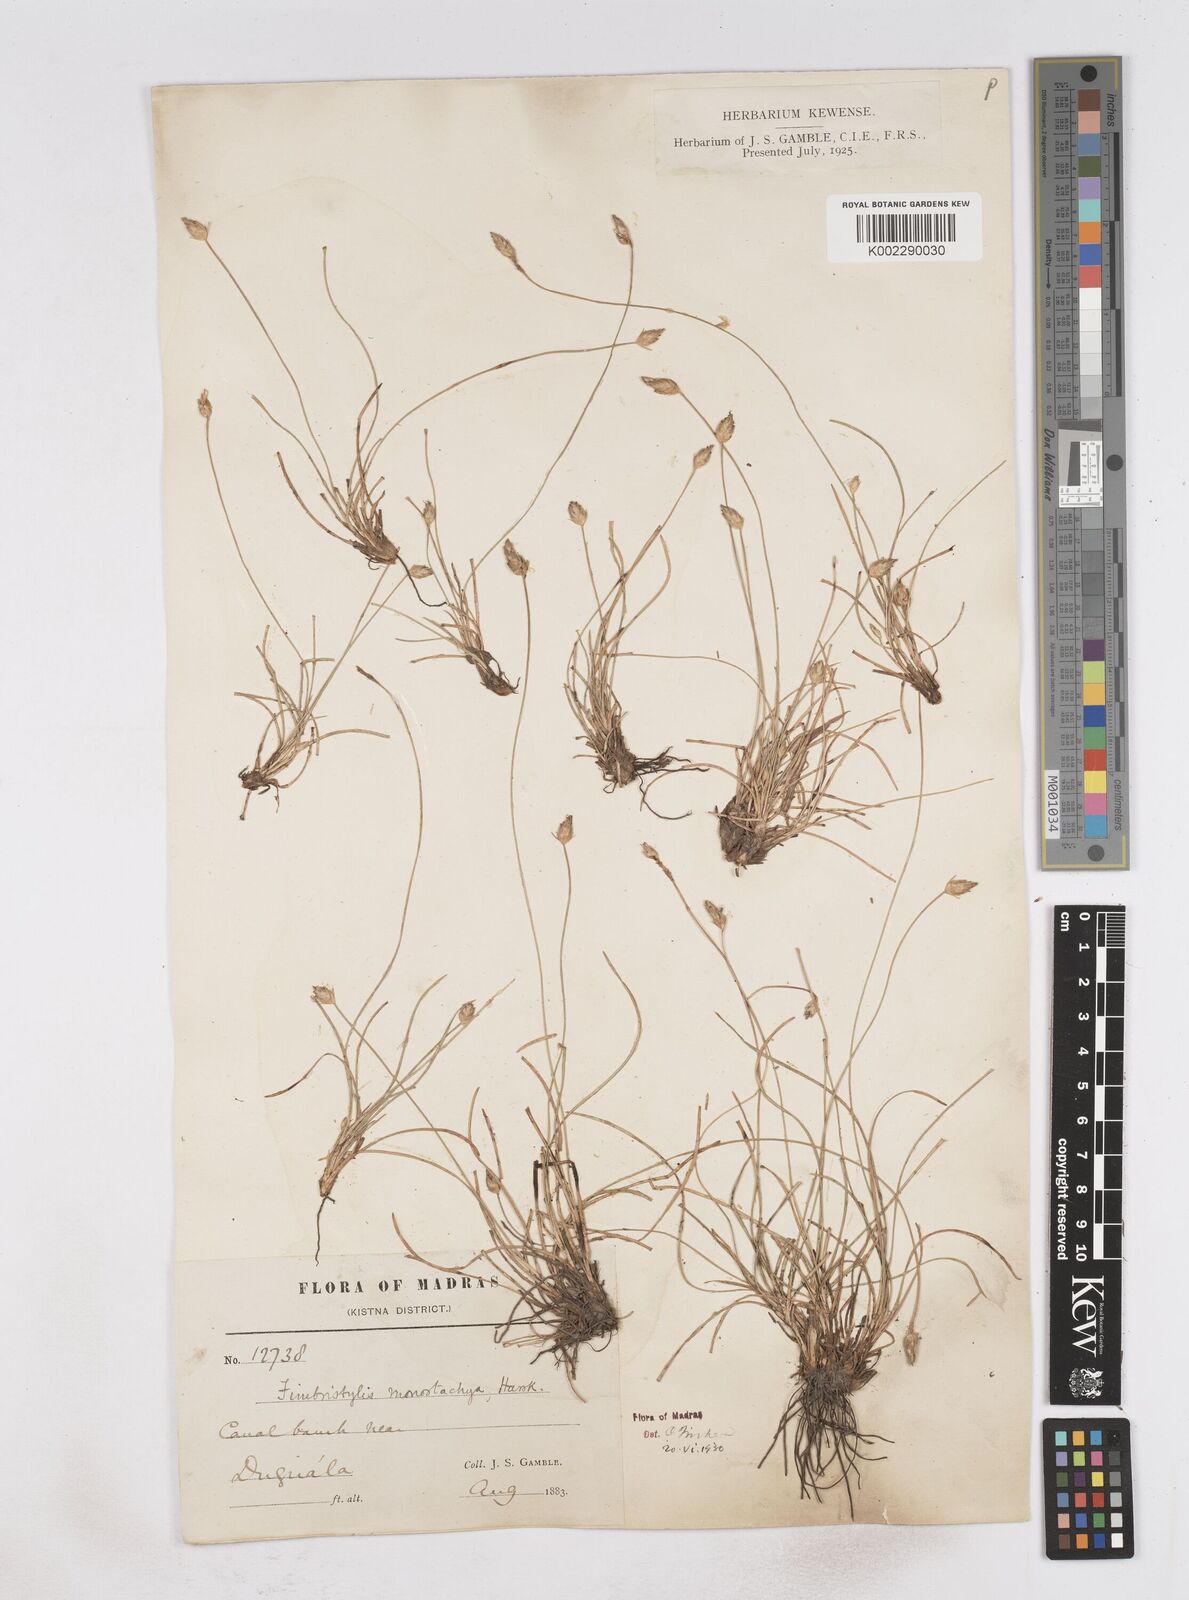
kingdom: Plantae
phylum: Tracheophyta
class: Liliopsida
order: Poales
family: Cyperaceae
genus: Abildgaardia
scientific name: Abildgaardia ovata
